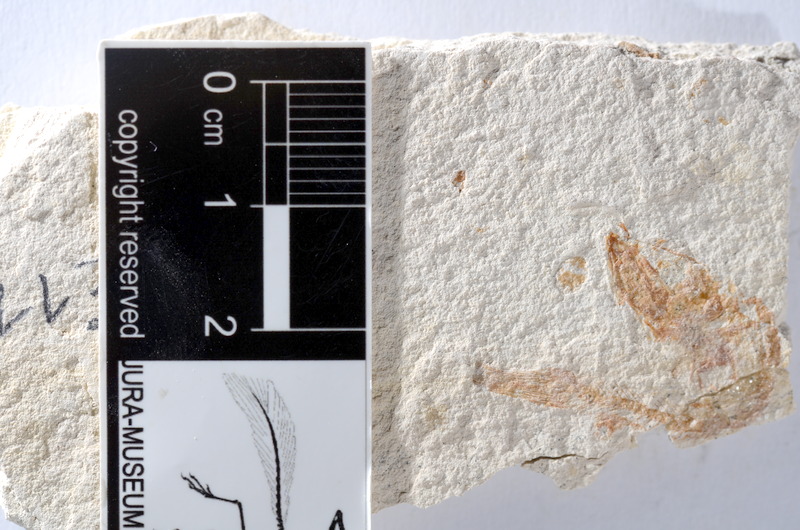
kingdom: Animalia
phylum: Chordata
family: Ascalaboidae
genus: Tharsis
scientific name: Tharsis dubius
